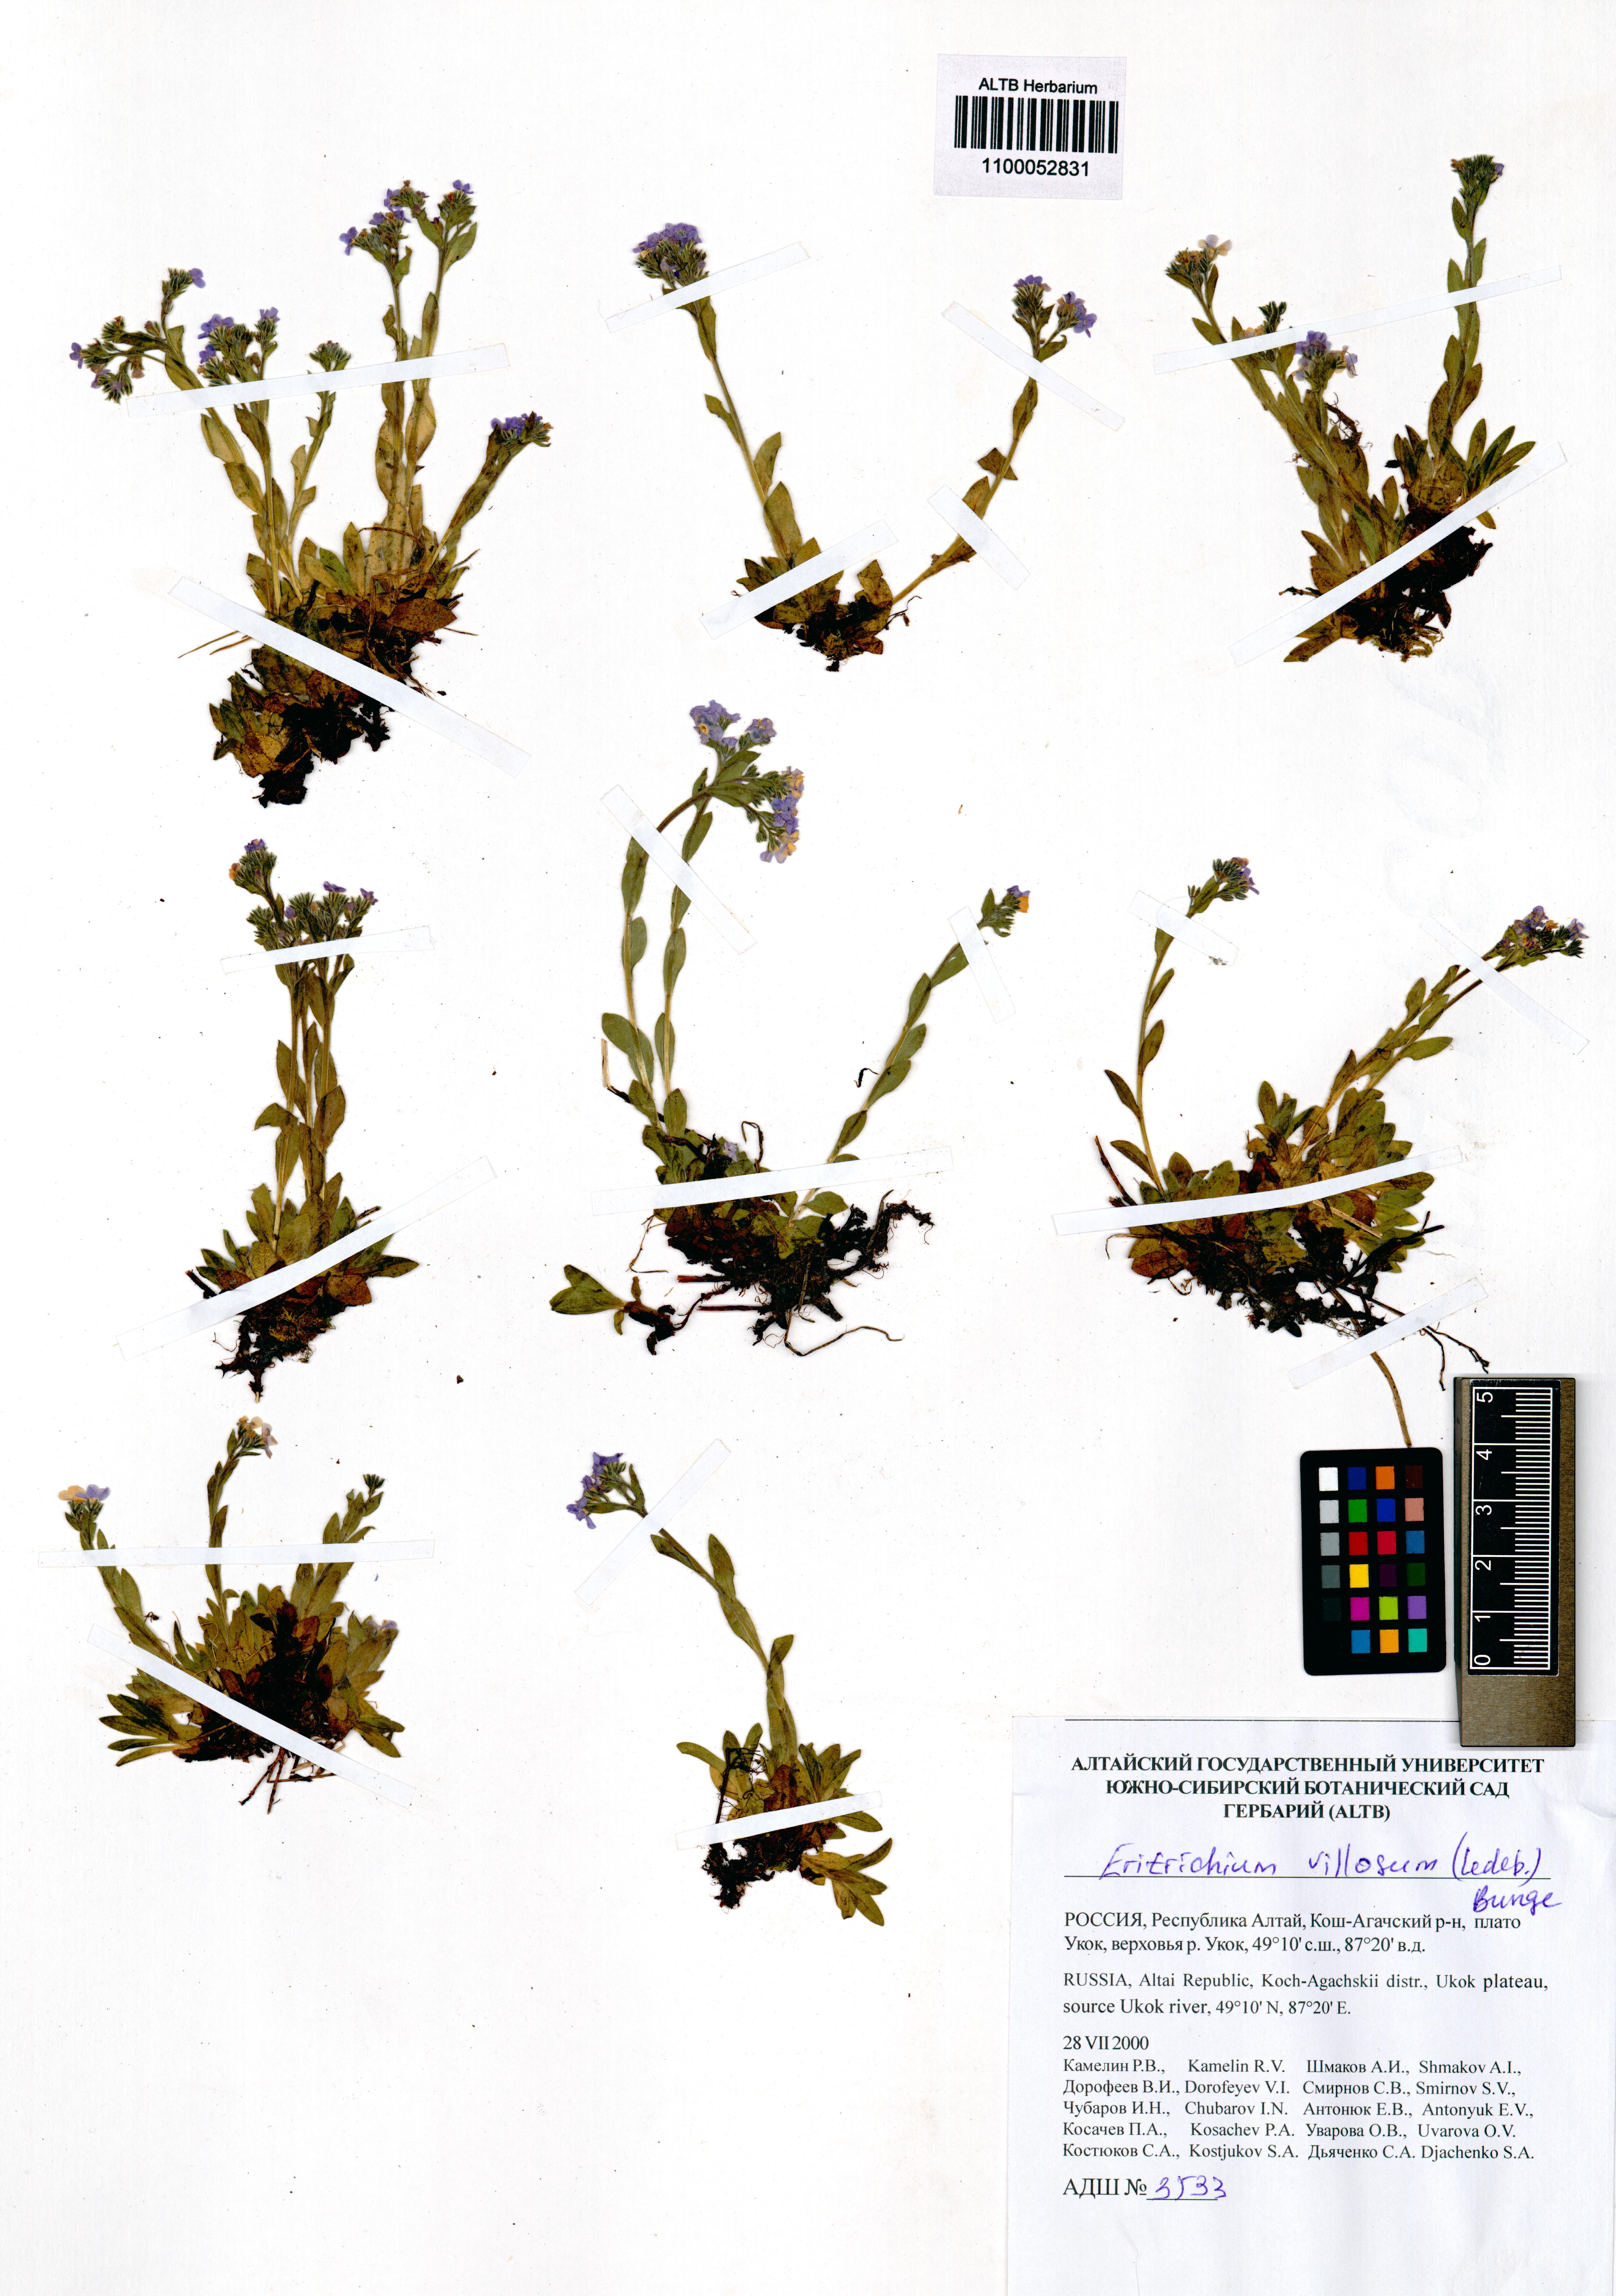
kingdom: Plantae
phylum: Tracheophyta
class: Magnoliopsida
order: Boraginales
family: Boraginaceae
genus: Eritrichium
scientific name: Eritrichium villosum
